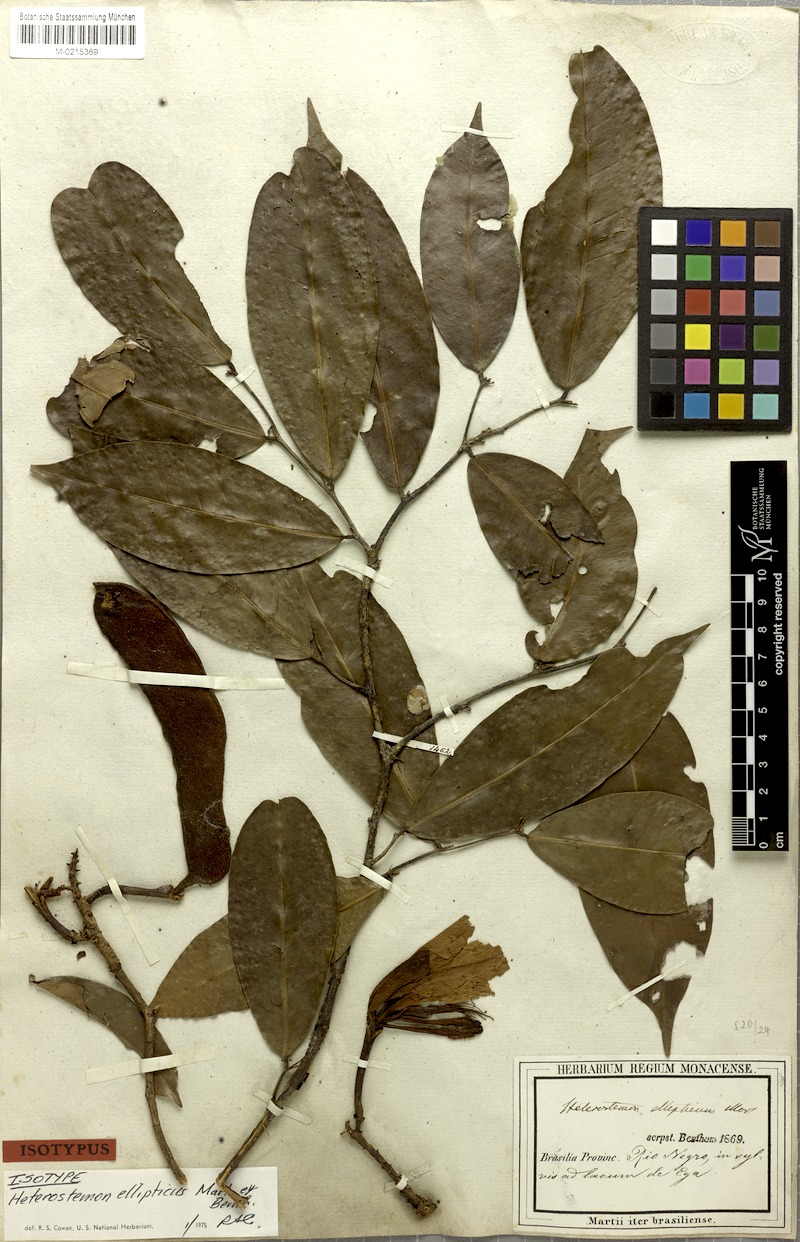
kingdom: Plantae
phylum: Tracheophyta
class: Magnoliopsida
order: Fabales
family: Fabaceae
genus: Heterostemon
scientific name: Heterostemon ellipticus
